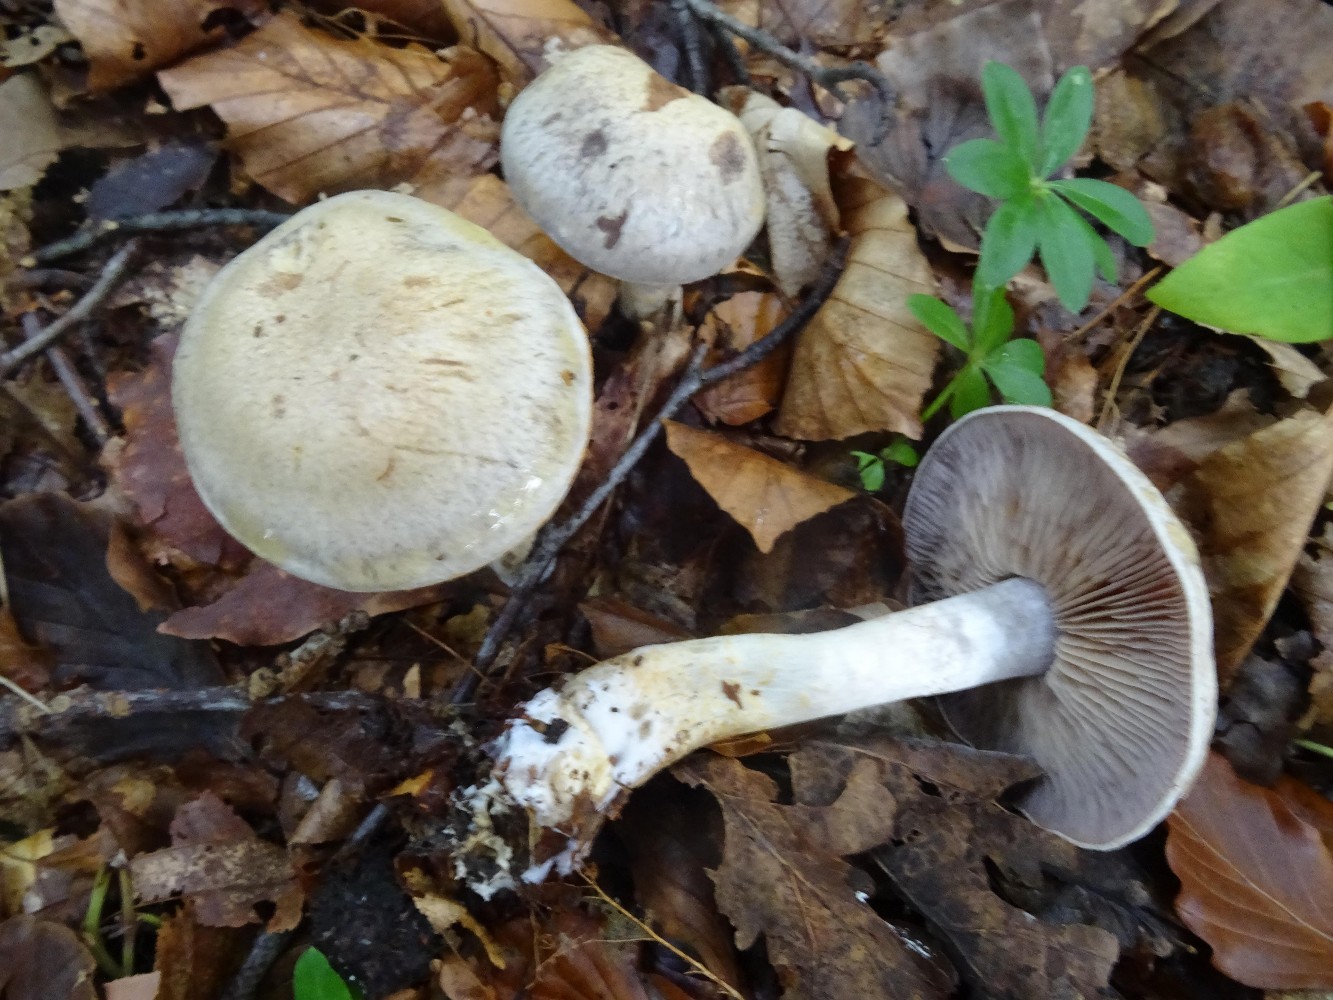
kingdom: Fungi
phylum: Basidiomycota
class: Agaricomycetes
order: Agaricales
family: Cortinariaceae
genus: Cortinarius
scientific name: Cortinarius
